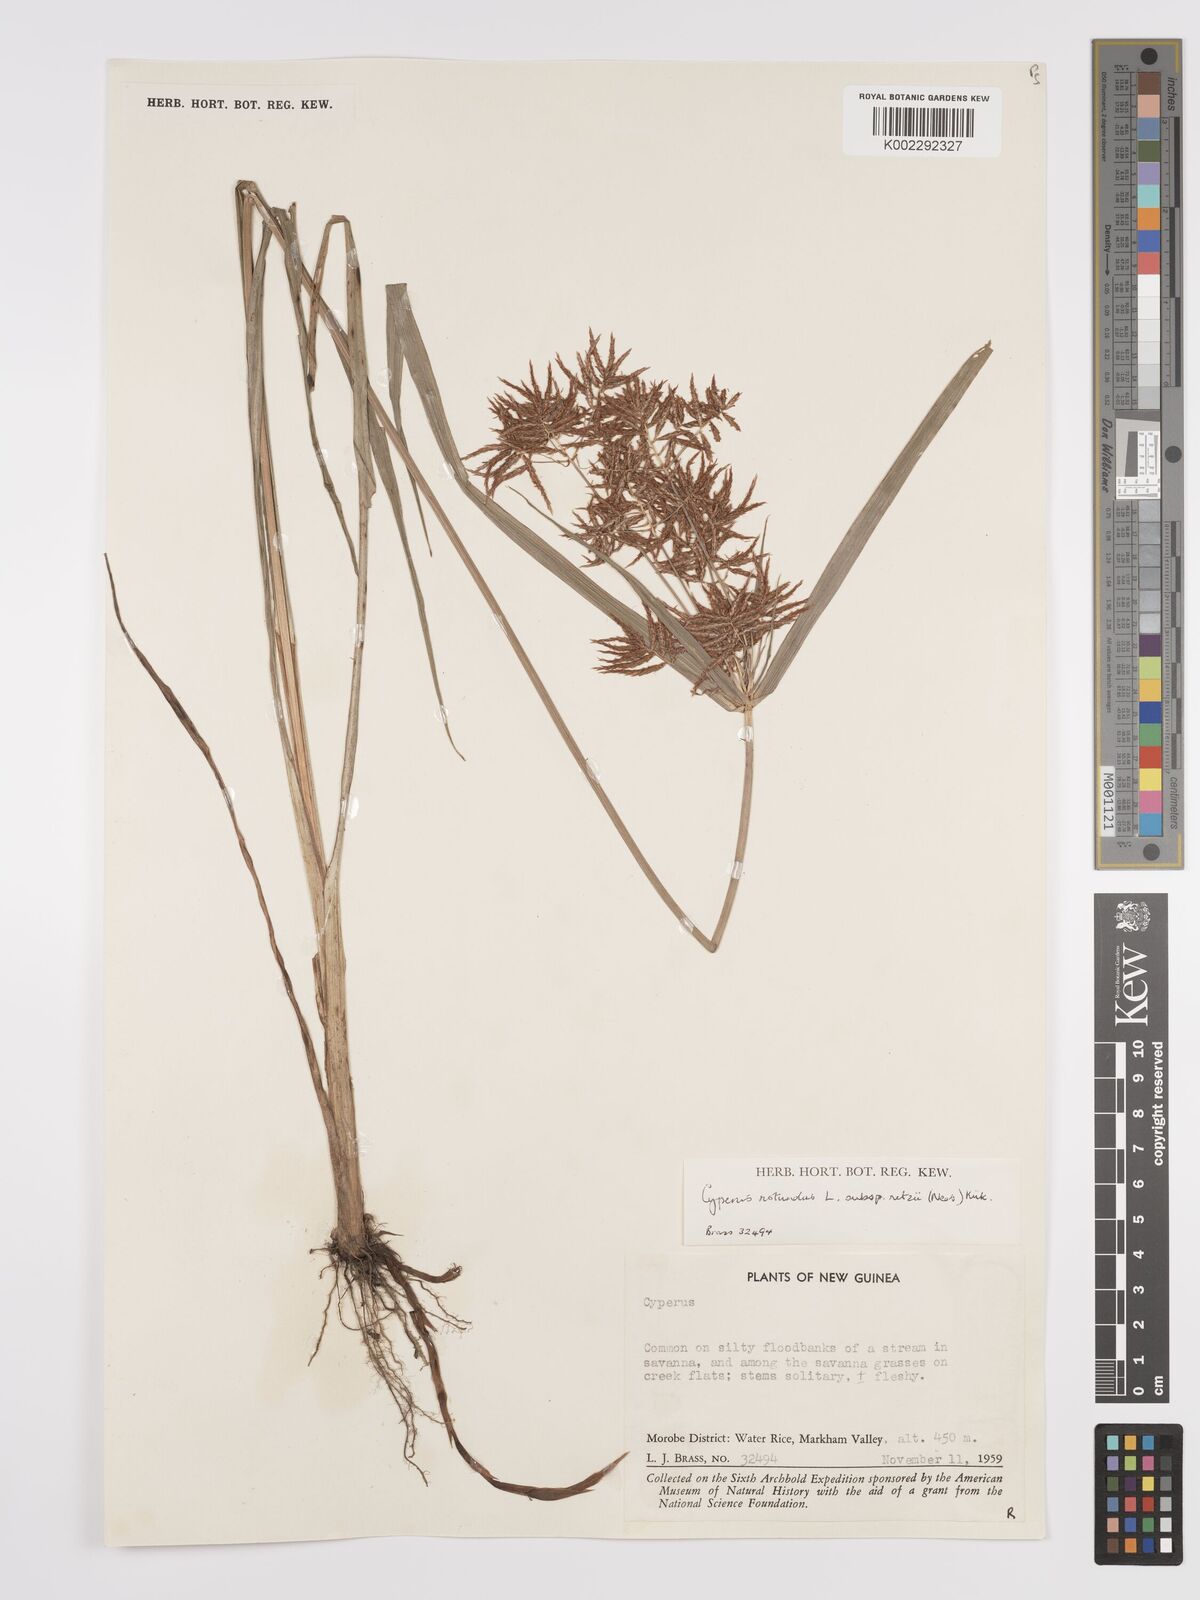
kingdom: Plantae
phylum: Tracheophyta
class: Liliopsida
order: Poales
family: Cyperaceae
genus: Cyperus
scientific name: Cyperus bifax
